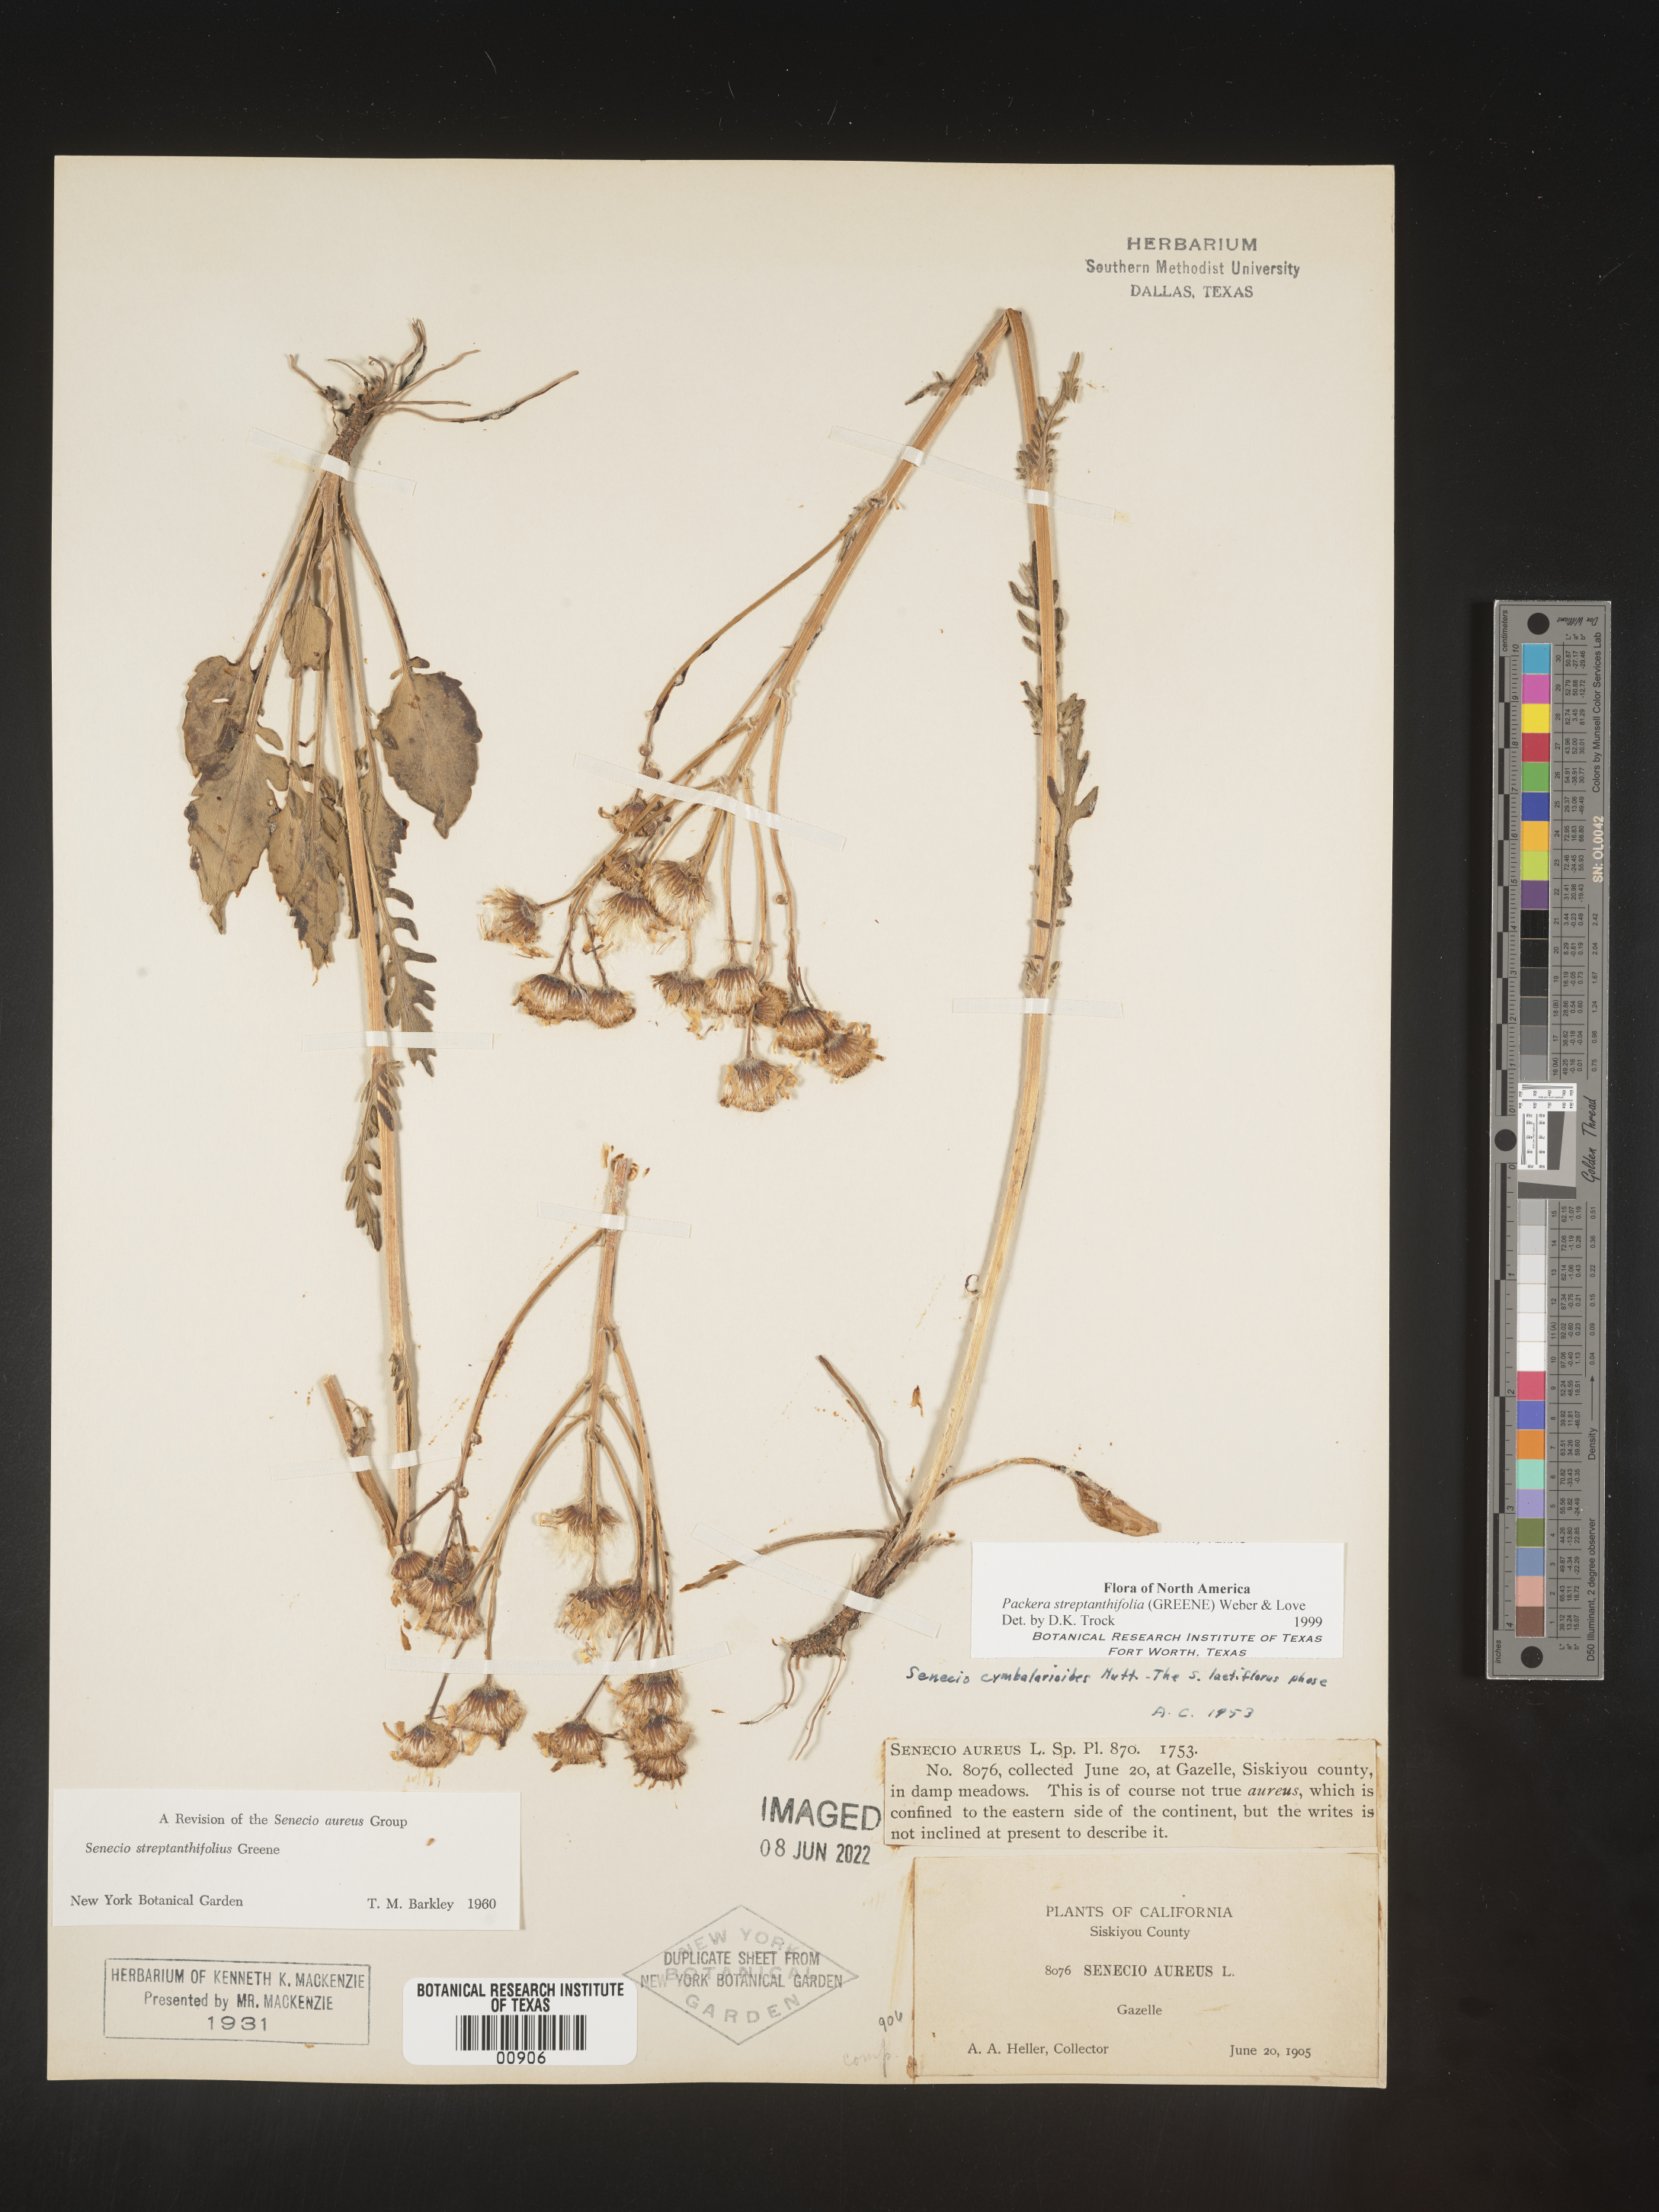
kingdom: Plantae
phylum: Tracheophyta
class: Magnoliopsida
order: Asterales
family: Asteraceae
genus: Packera
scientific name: Packera streptanthifolia
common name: Rocky mountain butterweed
